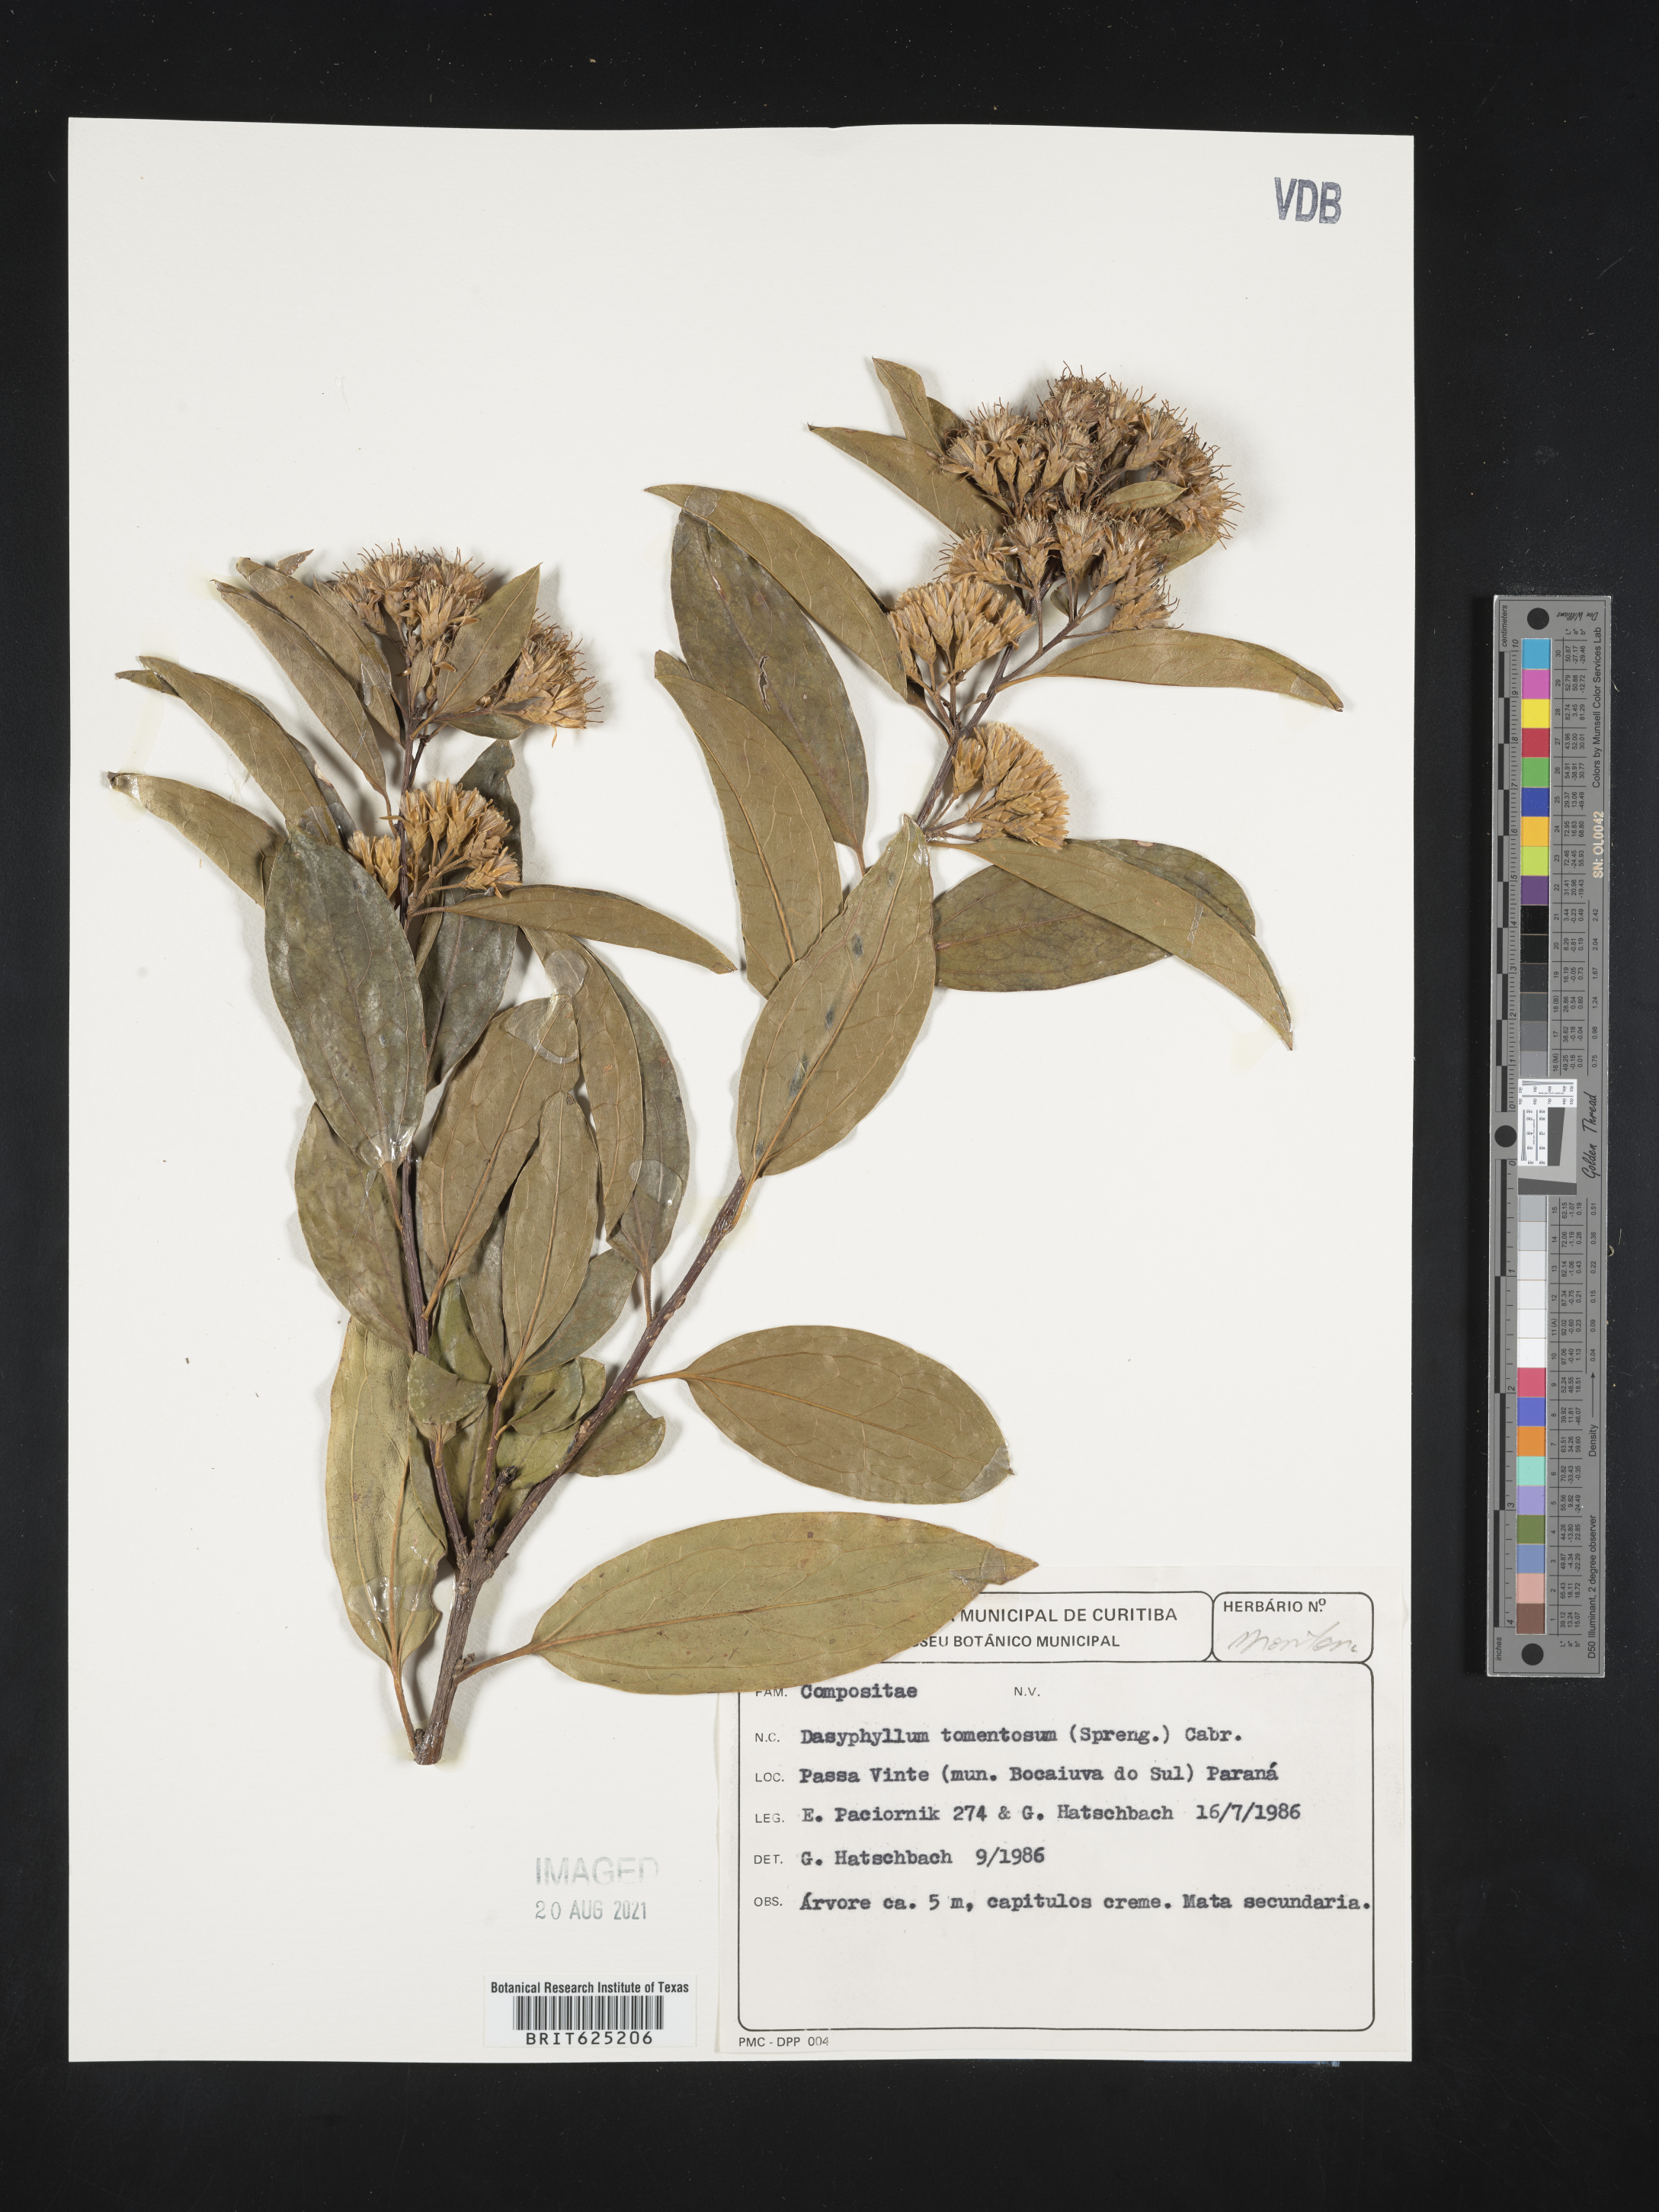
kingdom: Plantae
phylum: Tracheophyta
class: Magnoliopsida
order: Asterales
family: Asteraceae
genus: Dasyphyllum
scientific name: Dasyphyllum tomentosum
